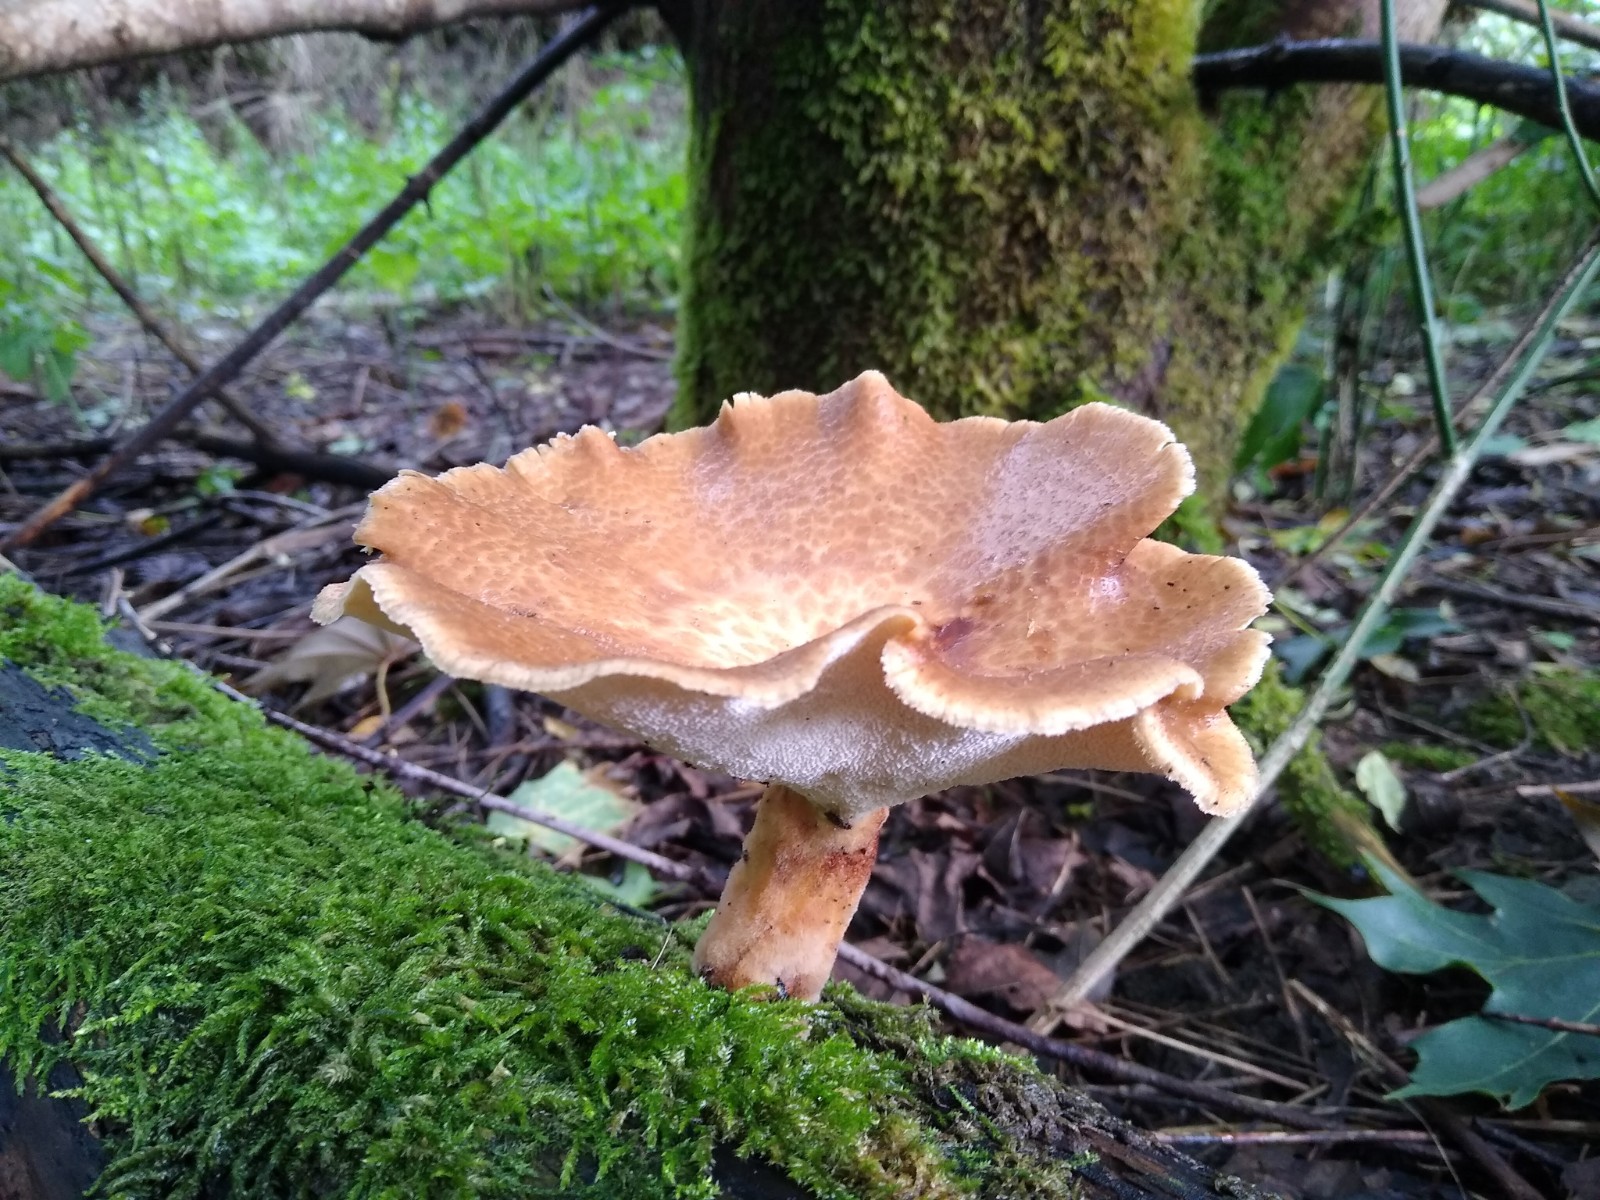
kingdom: Fungi
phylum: Basidiomycota
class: Agaricomycetes
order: Polyporales
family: Polyporaceae
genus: Polyporus
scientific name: Polyporus tuberaster
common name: knoldet stilkporesvamp
